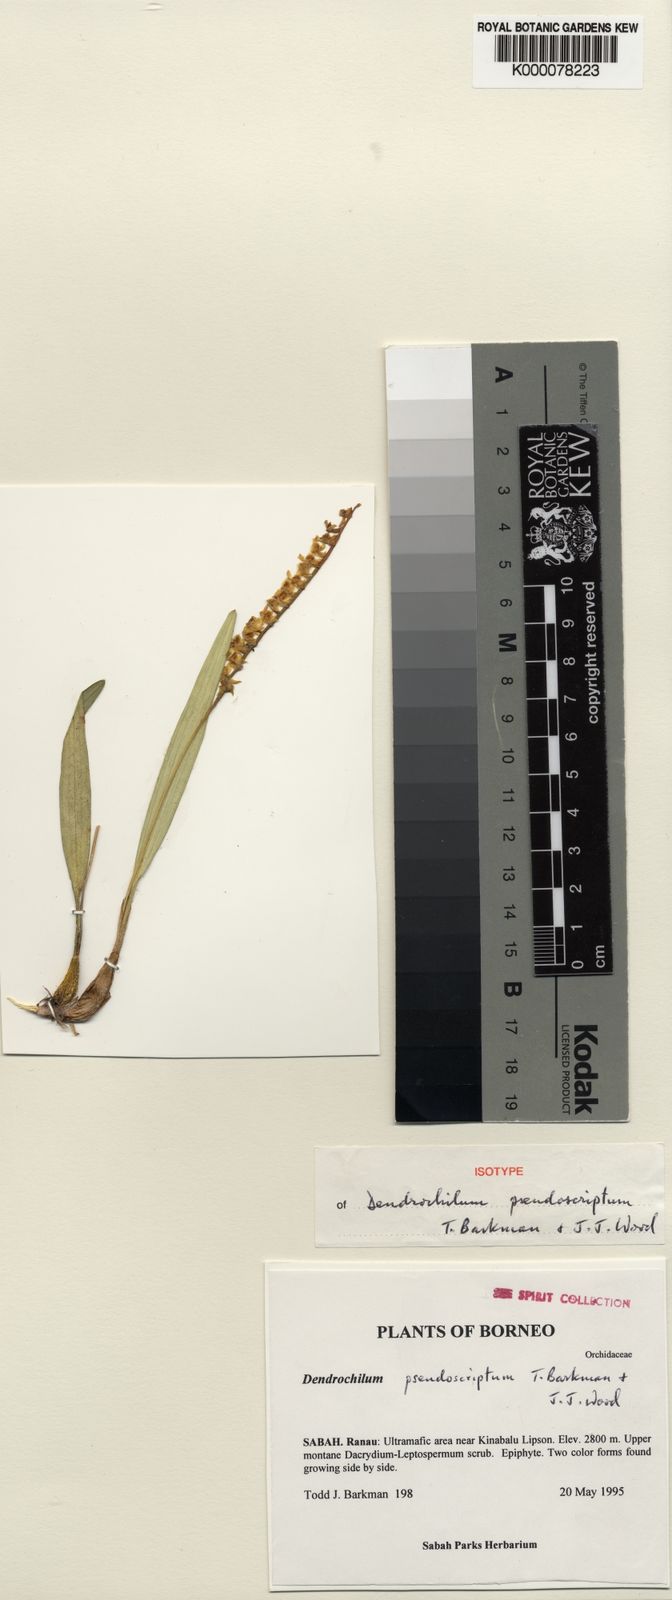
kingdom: Plantae
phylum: Tracheophyta
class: Liliopsida
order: Asparagales
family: Orchidaceae
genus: Coelogyne
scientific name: Coelogyne pseudoscripta
